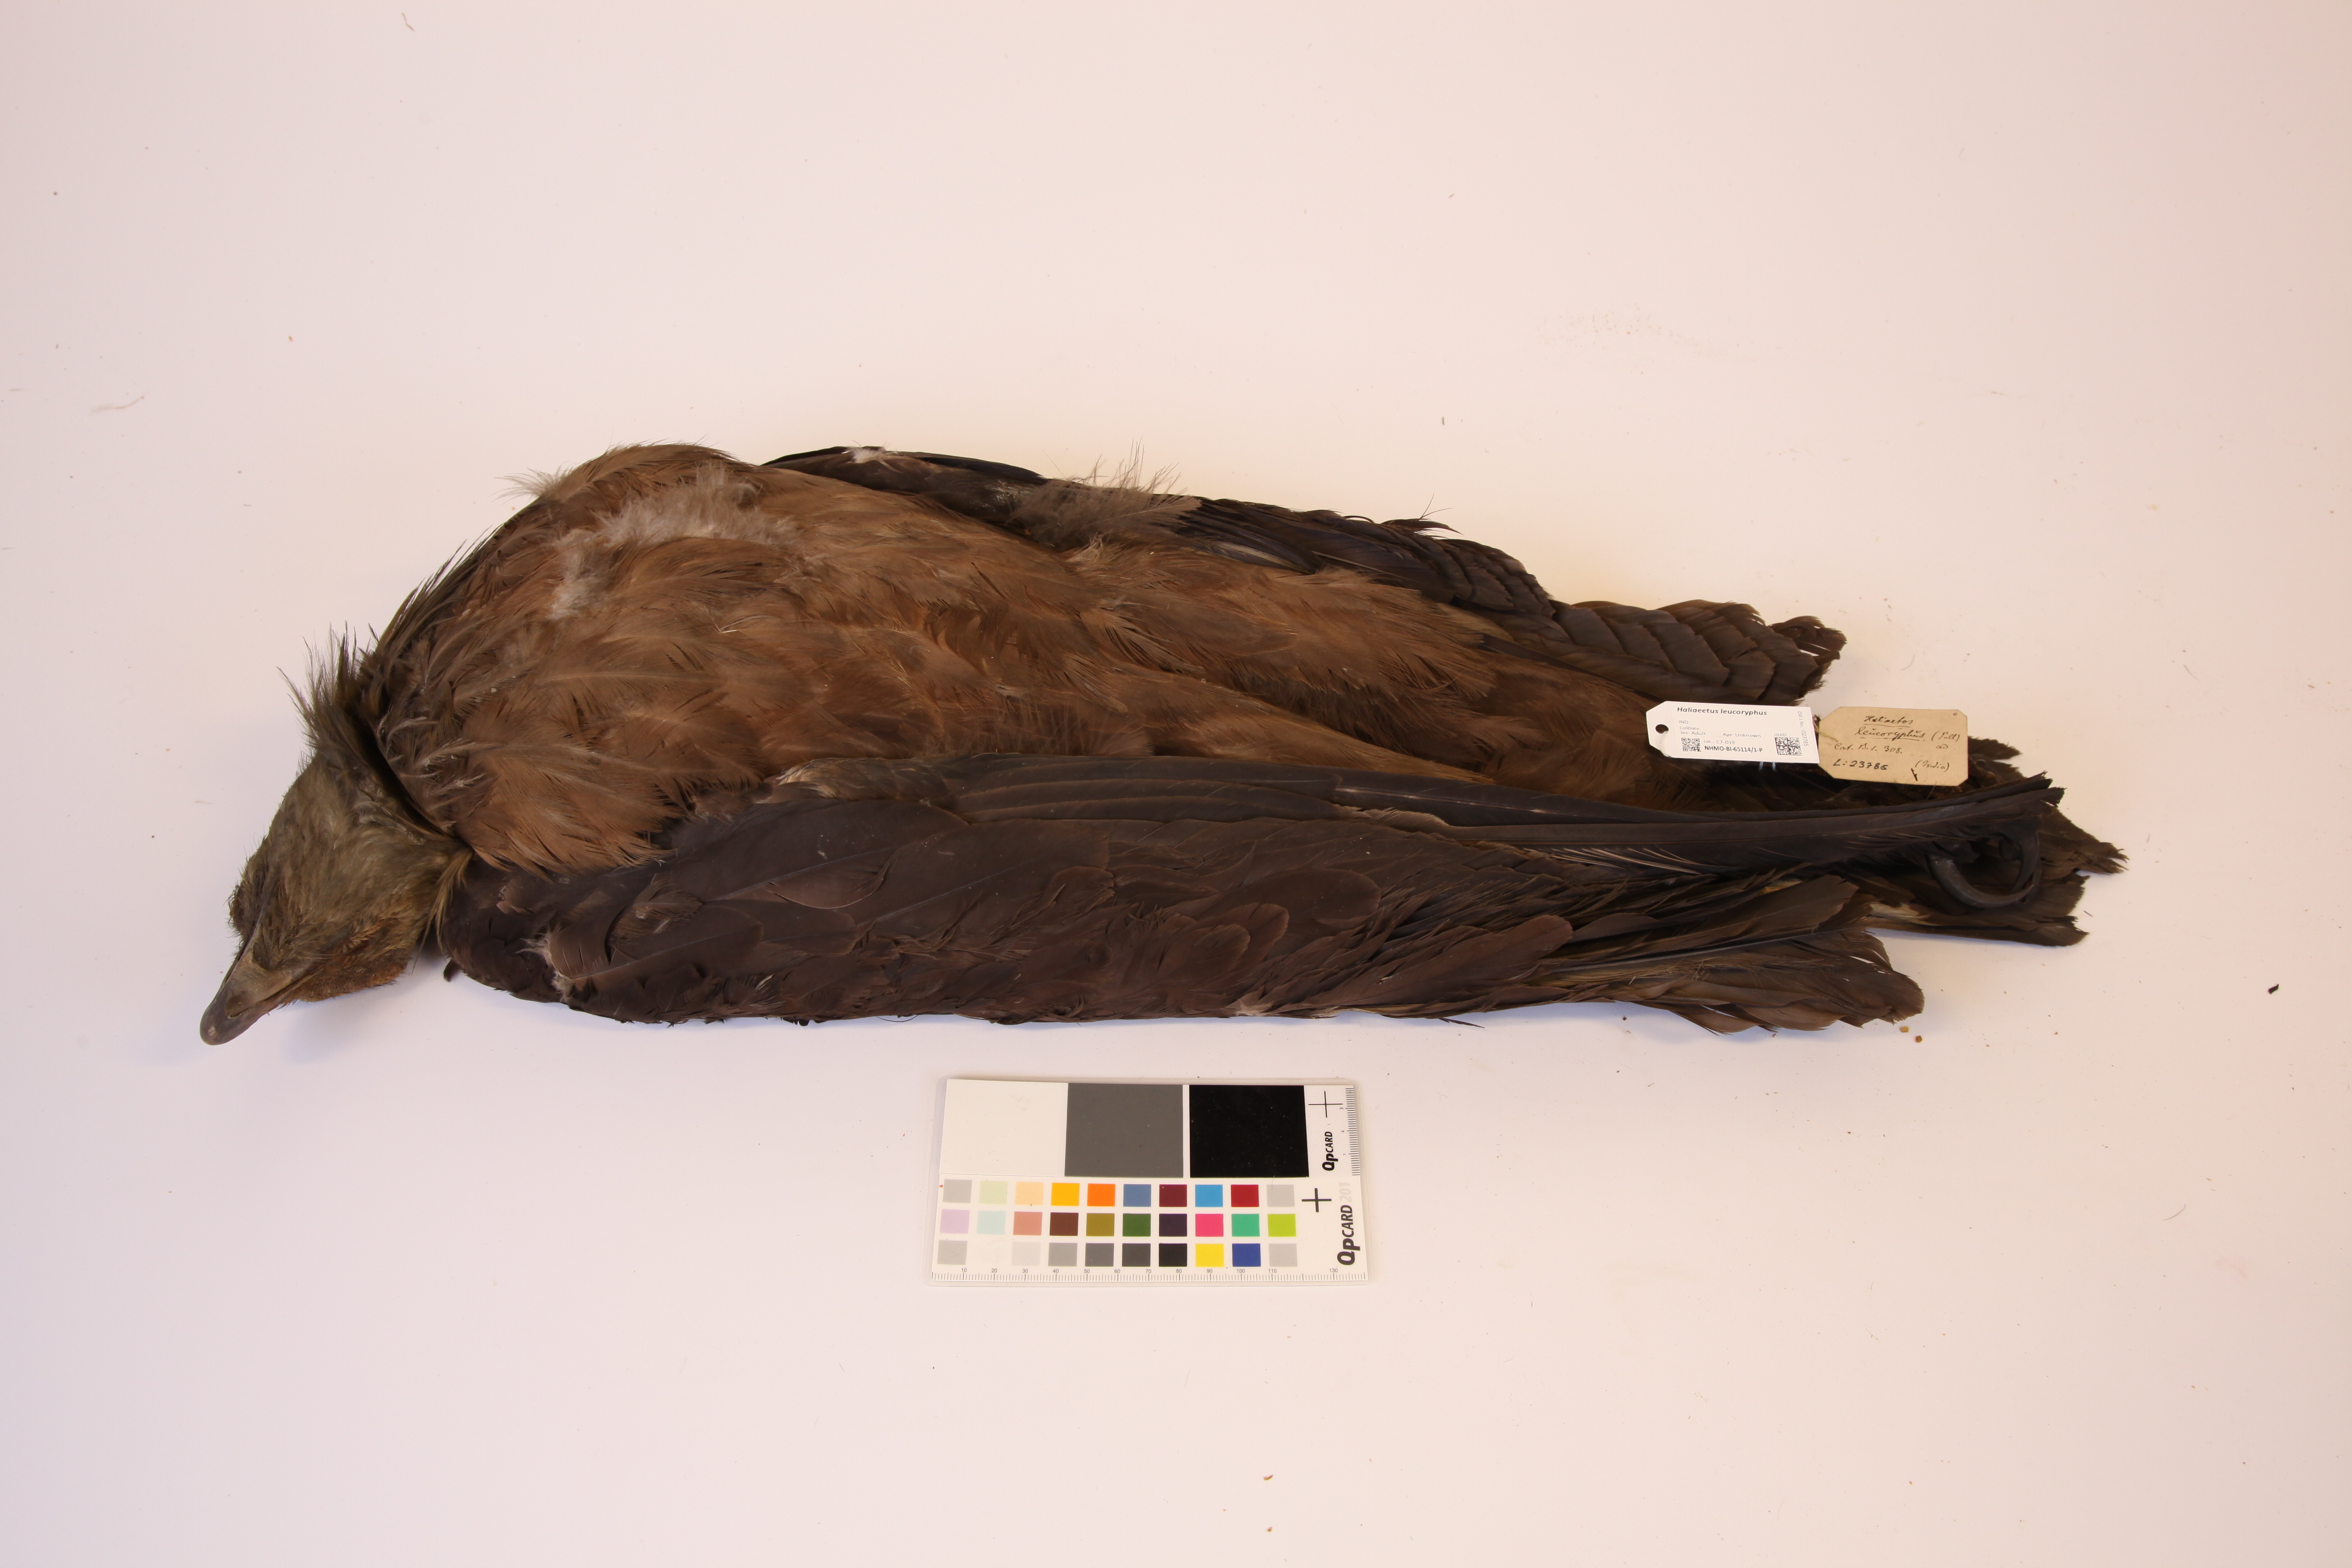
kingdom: Animalia
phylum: Chordata
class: Aves
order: Accipitriformes
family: Accipitridae
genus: Haliaeetus
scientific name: Haliaeetus leucoryphus
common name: Pallas's fish eagle
